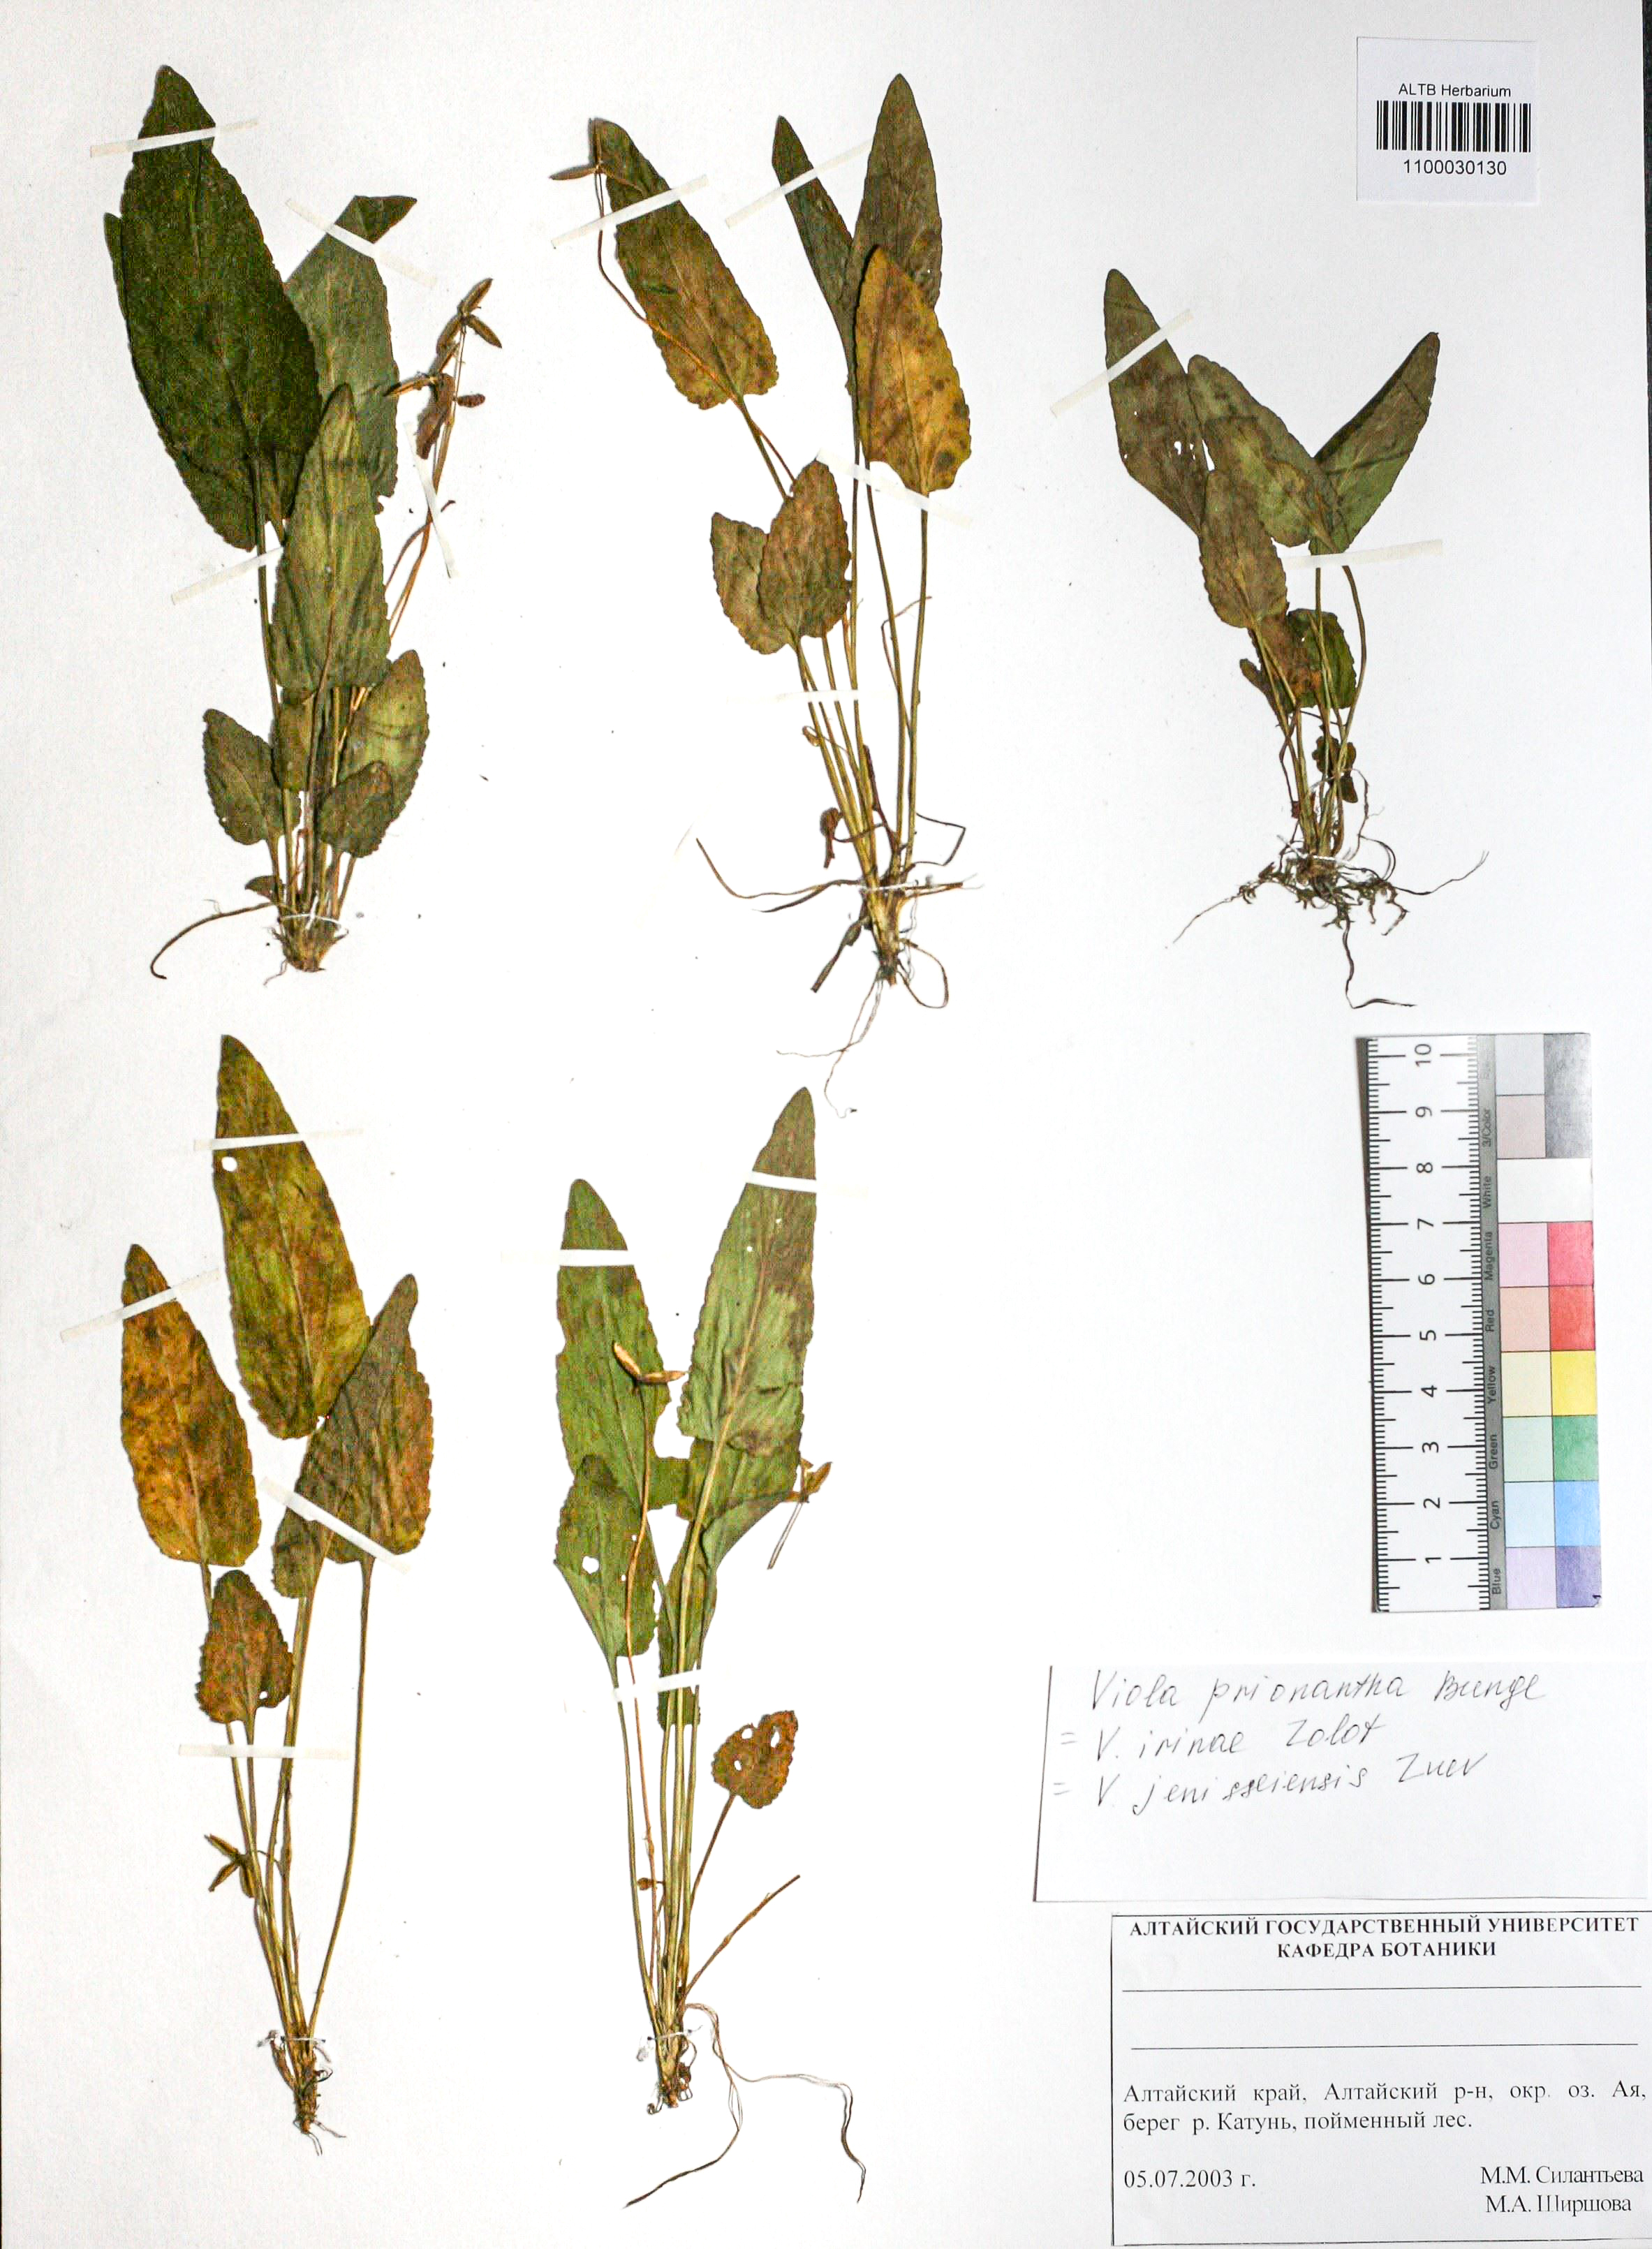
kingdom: Plantae
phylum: Tracheophyta
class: Magnoliopsida
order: Malpighiales
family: Violaceae
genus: Viola
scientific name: Viola prionantha
